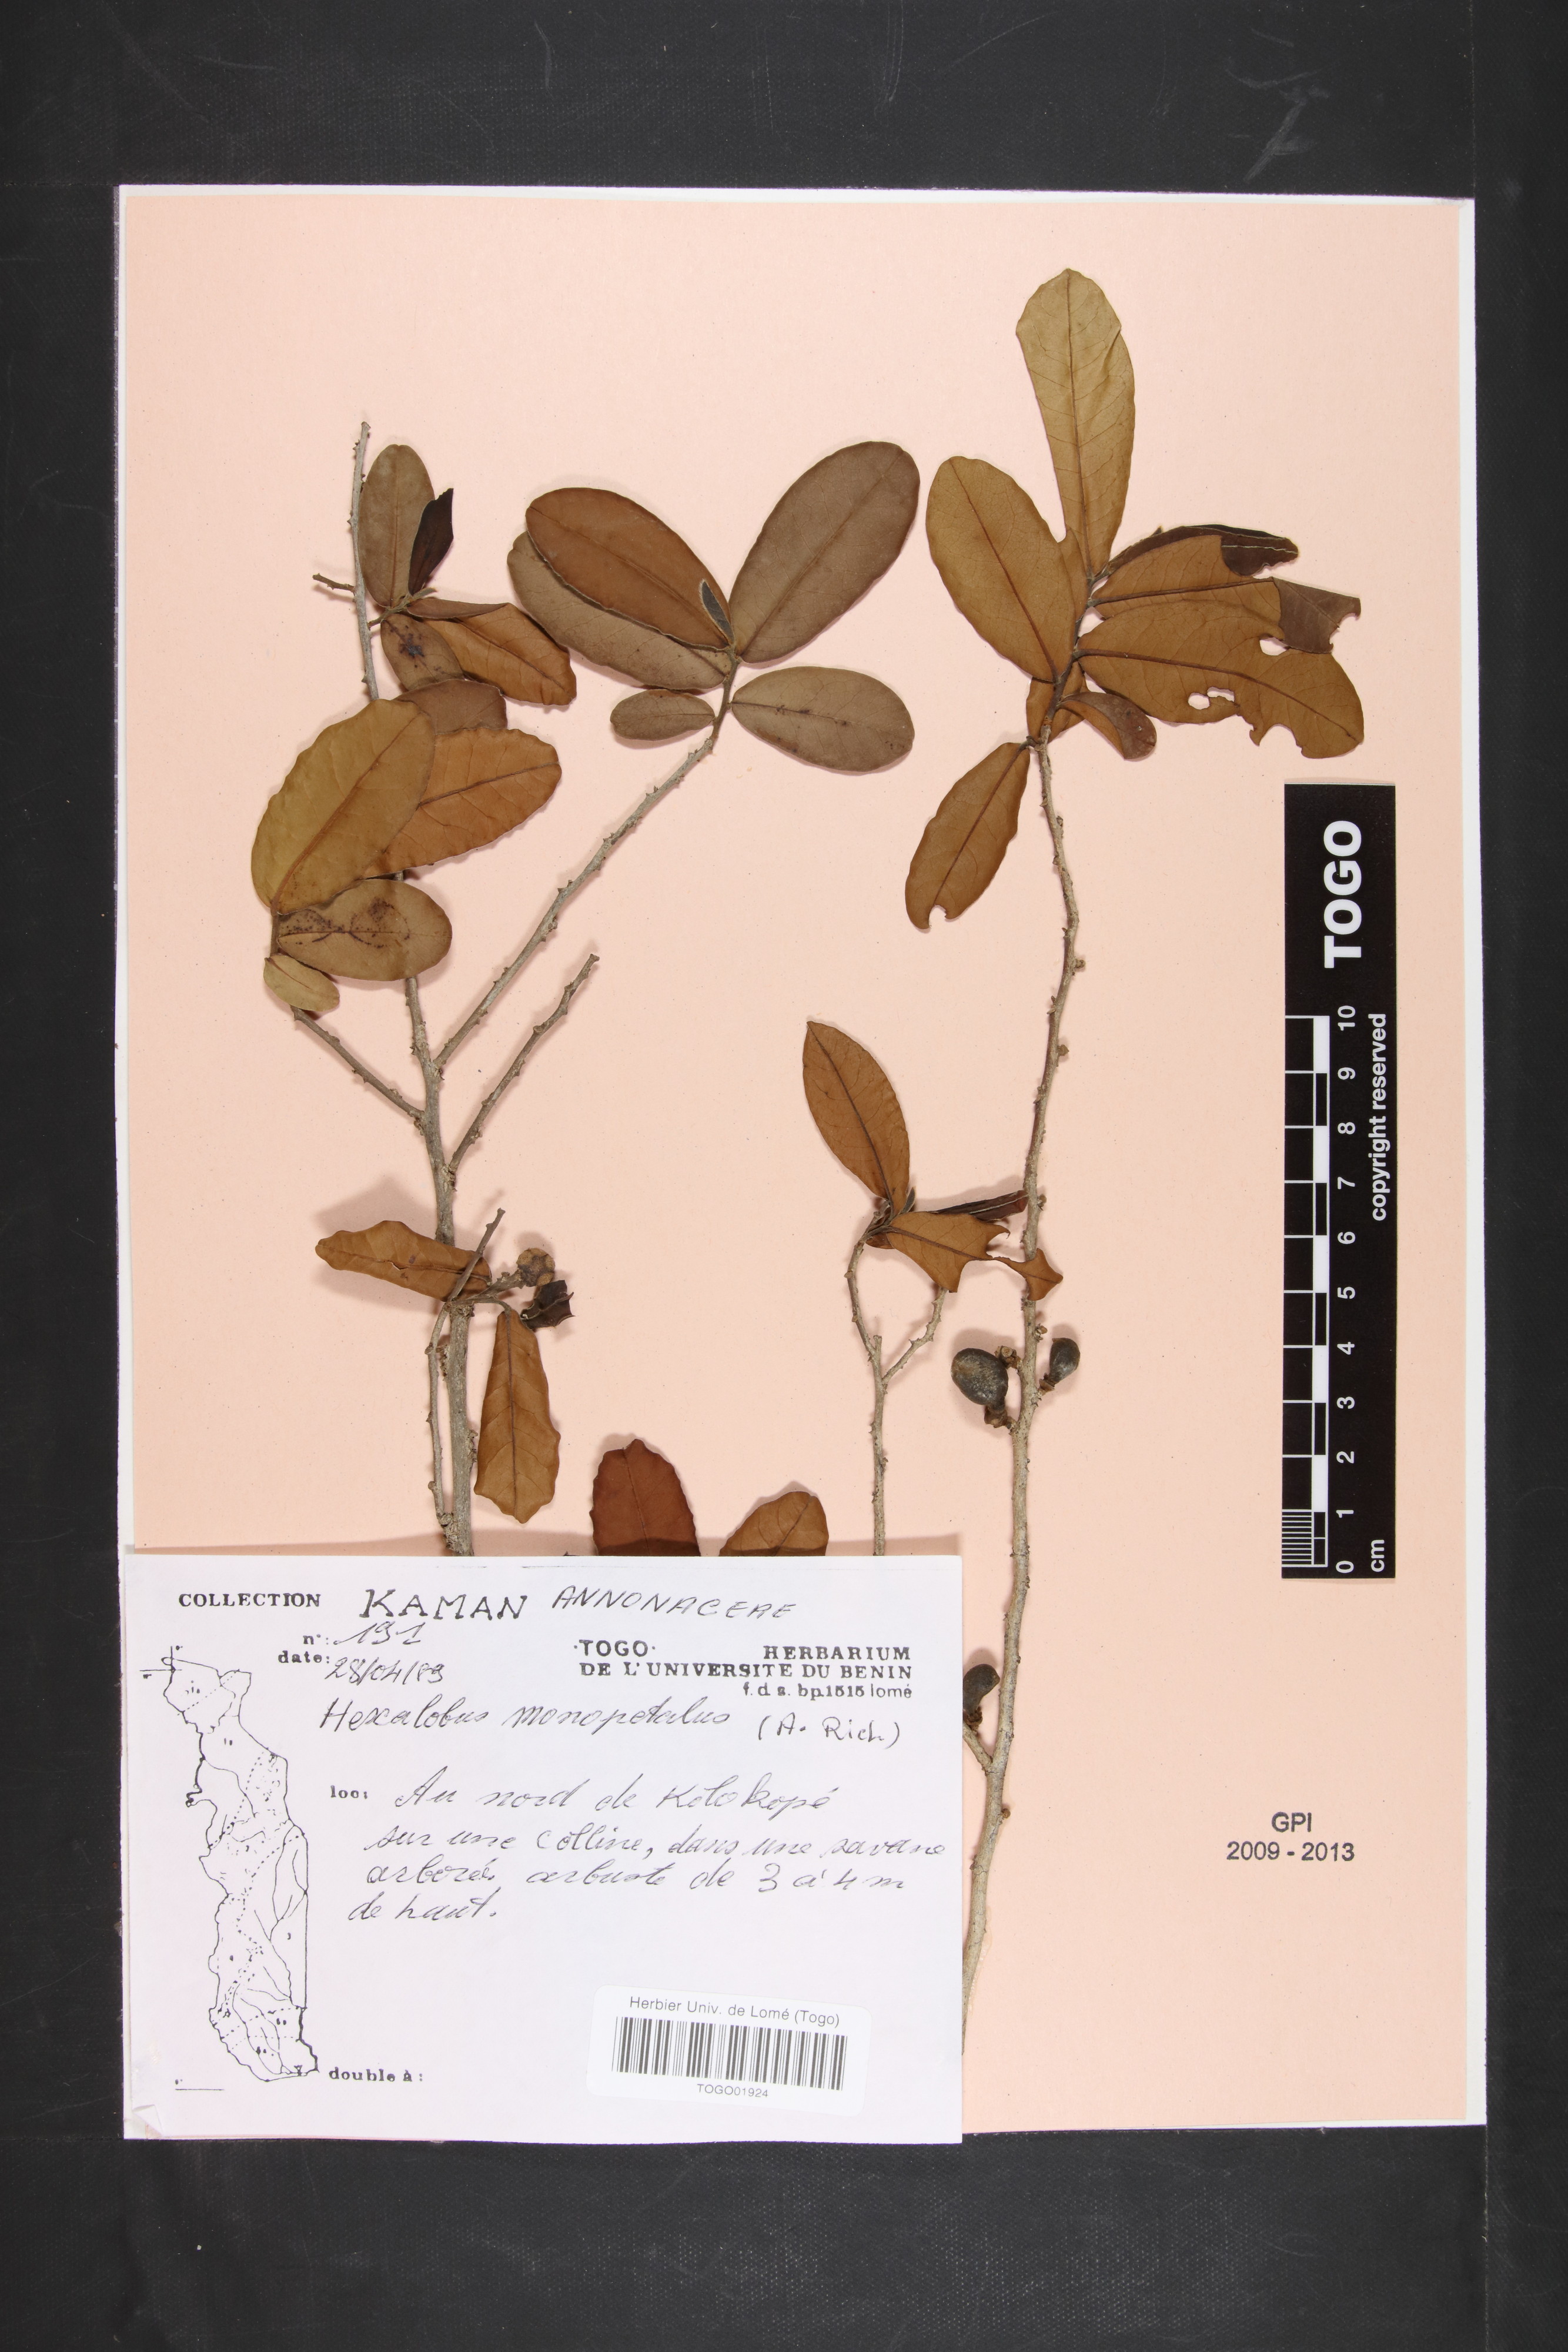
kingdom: Plantae
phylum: Tracheophyta
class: Magnoliopsida
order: Magnoliales
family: Annonaceae
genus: Hexalobus
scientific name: Hexalobus monopetalus
